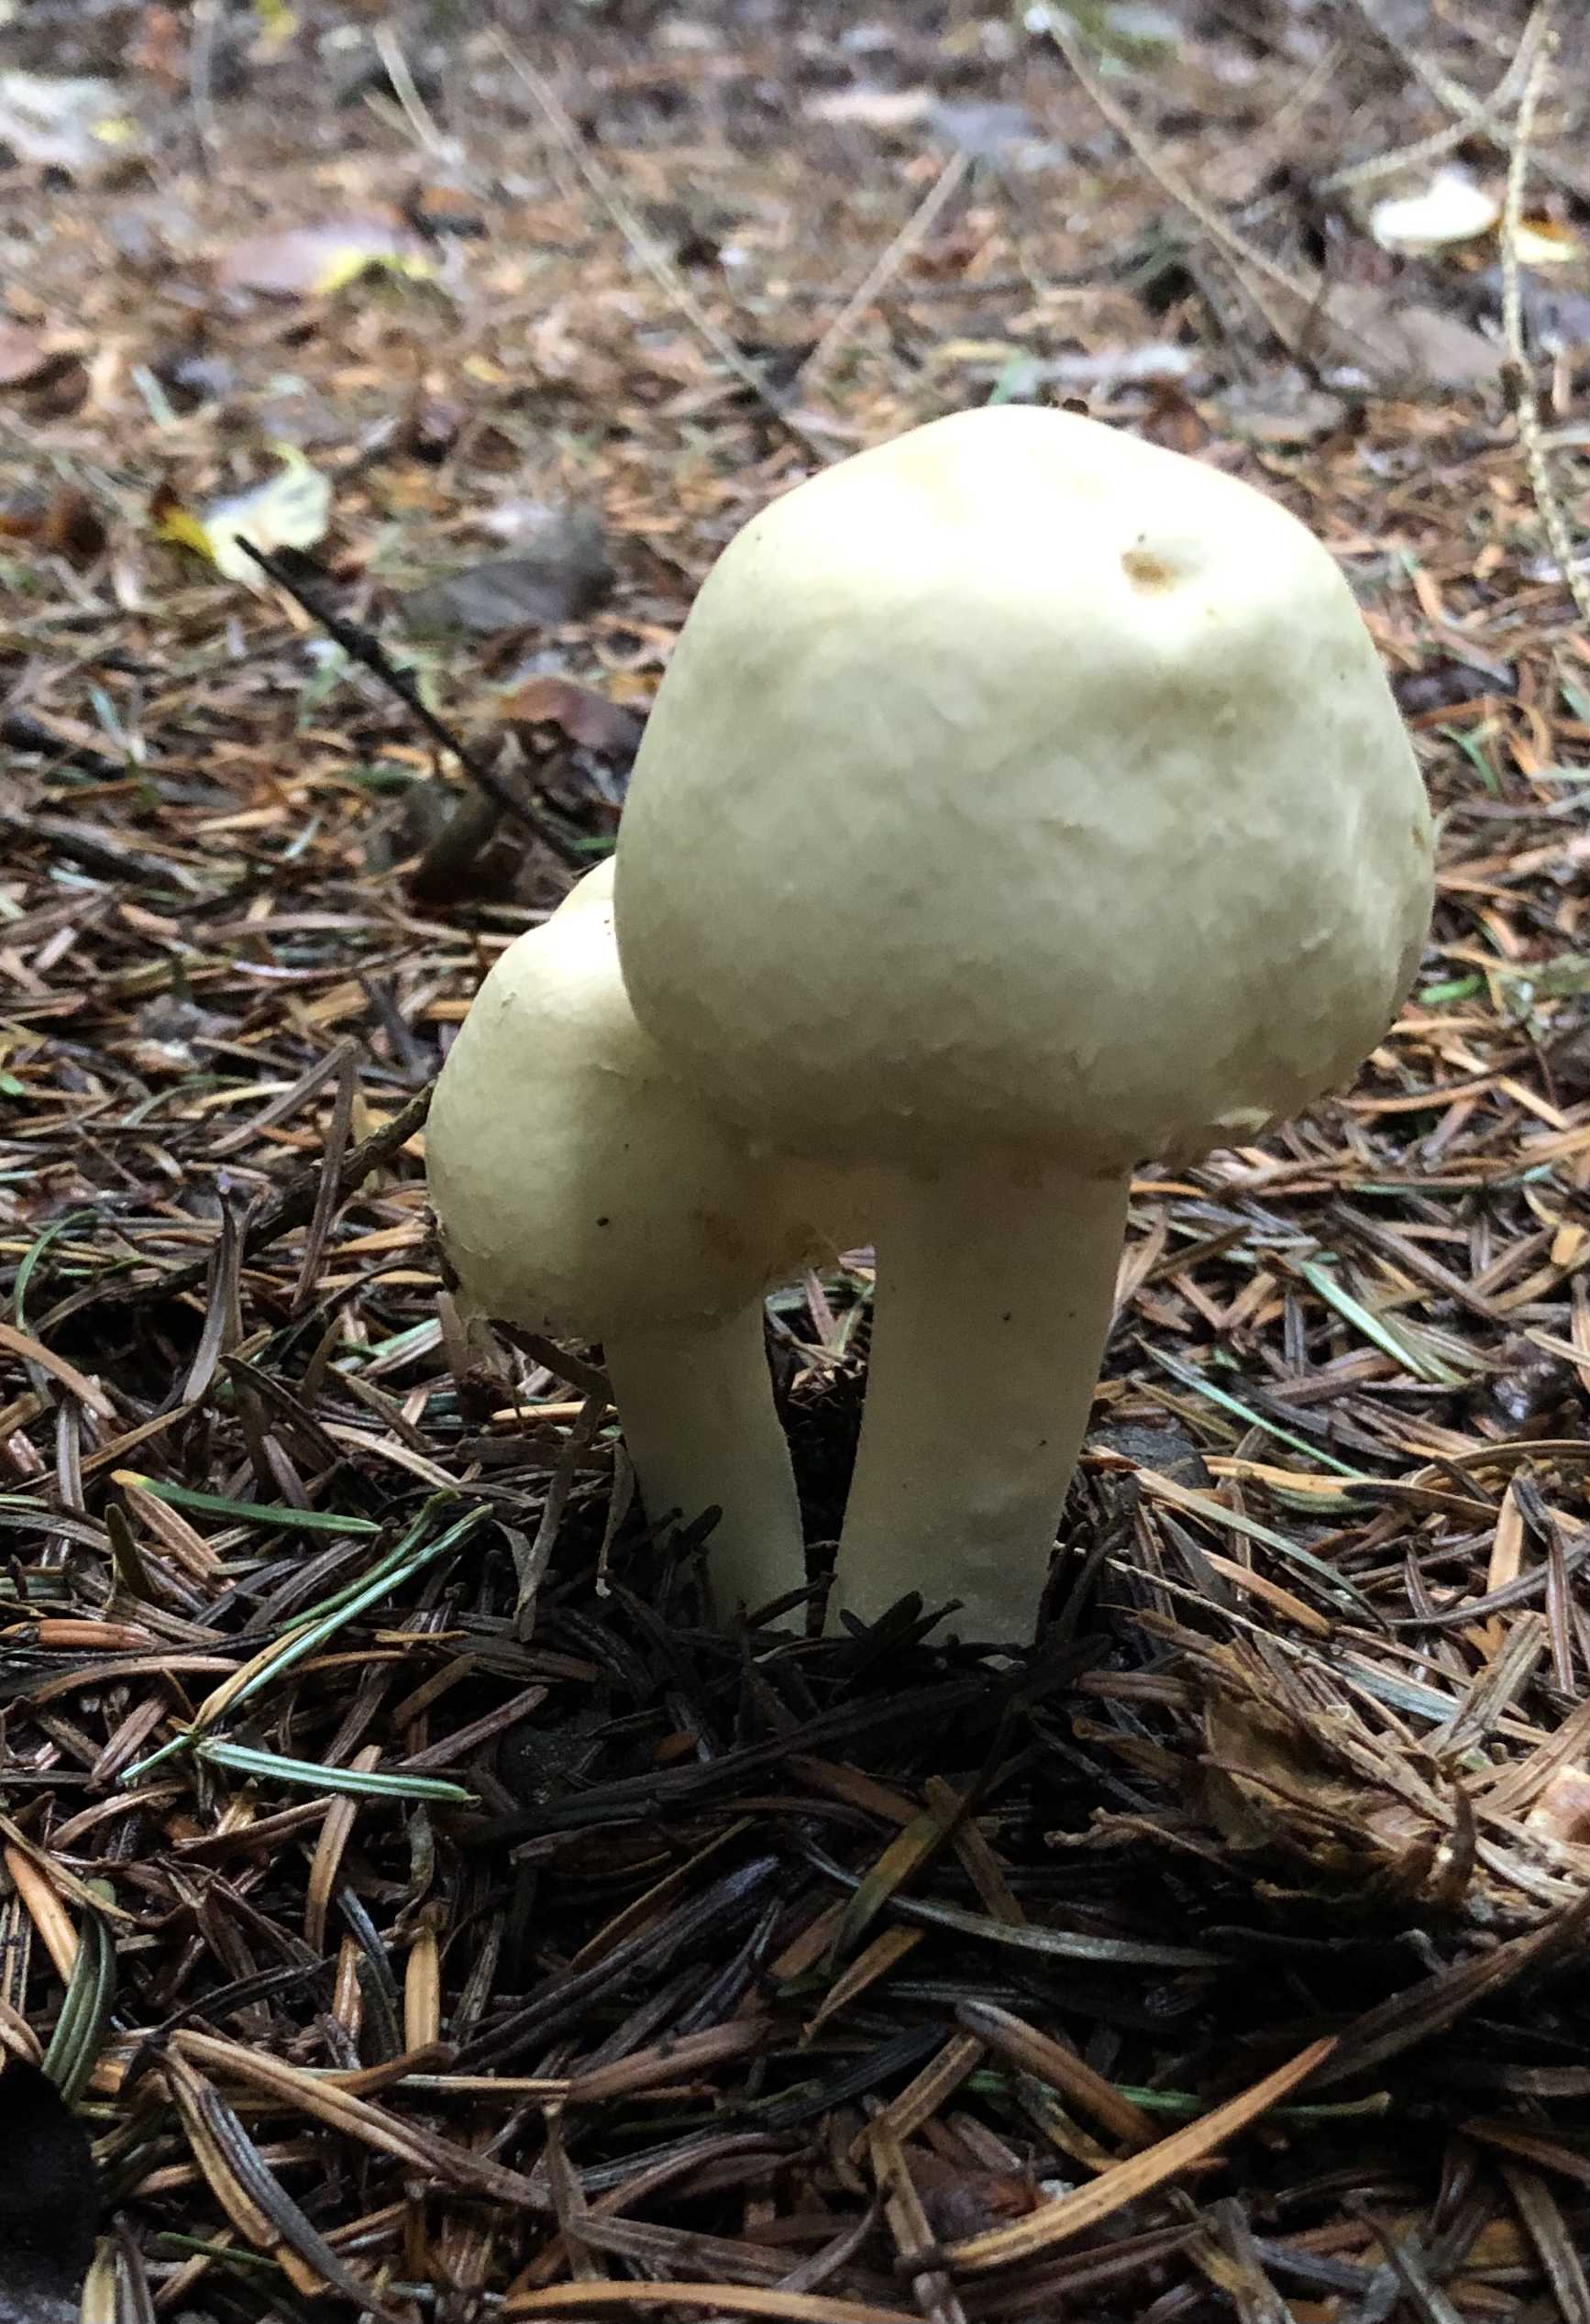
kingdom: Fungi
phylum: Basidiomycota
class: Agaricomycetes
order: Agaricales
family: Agaricaceae
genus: Agaricus
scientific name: Agaricus
